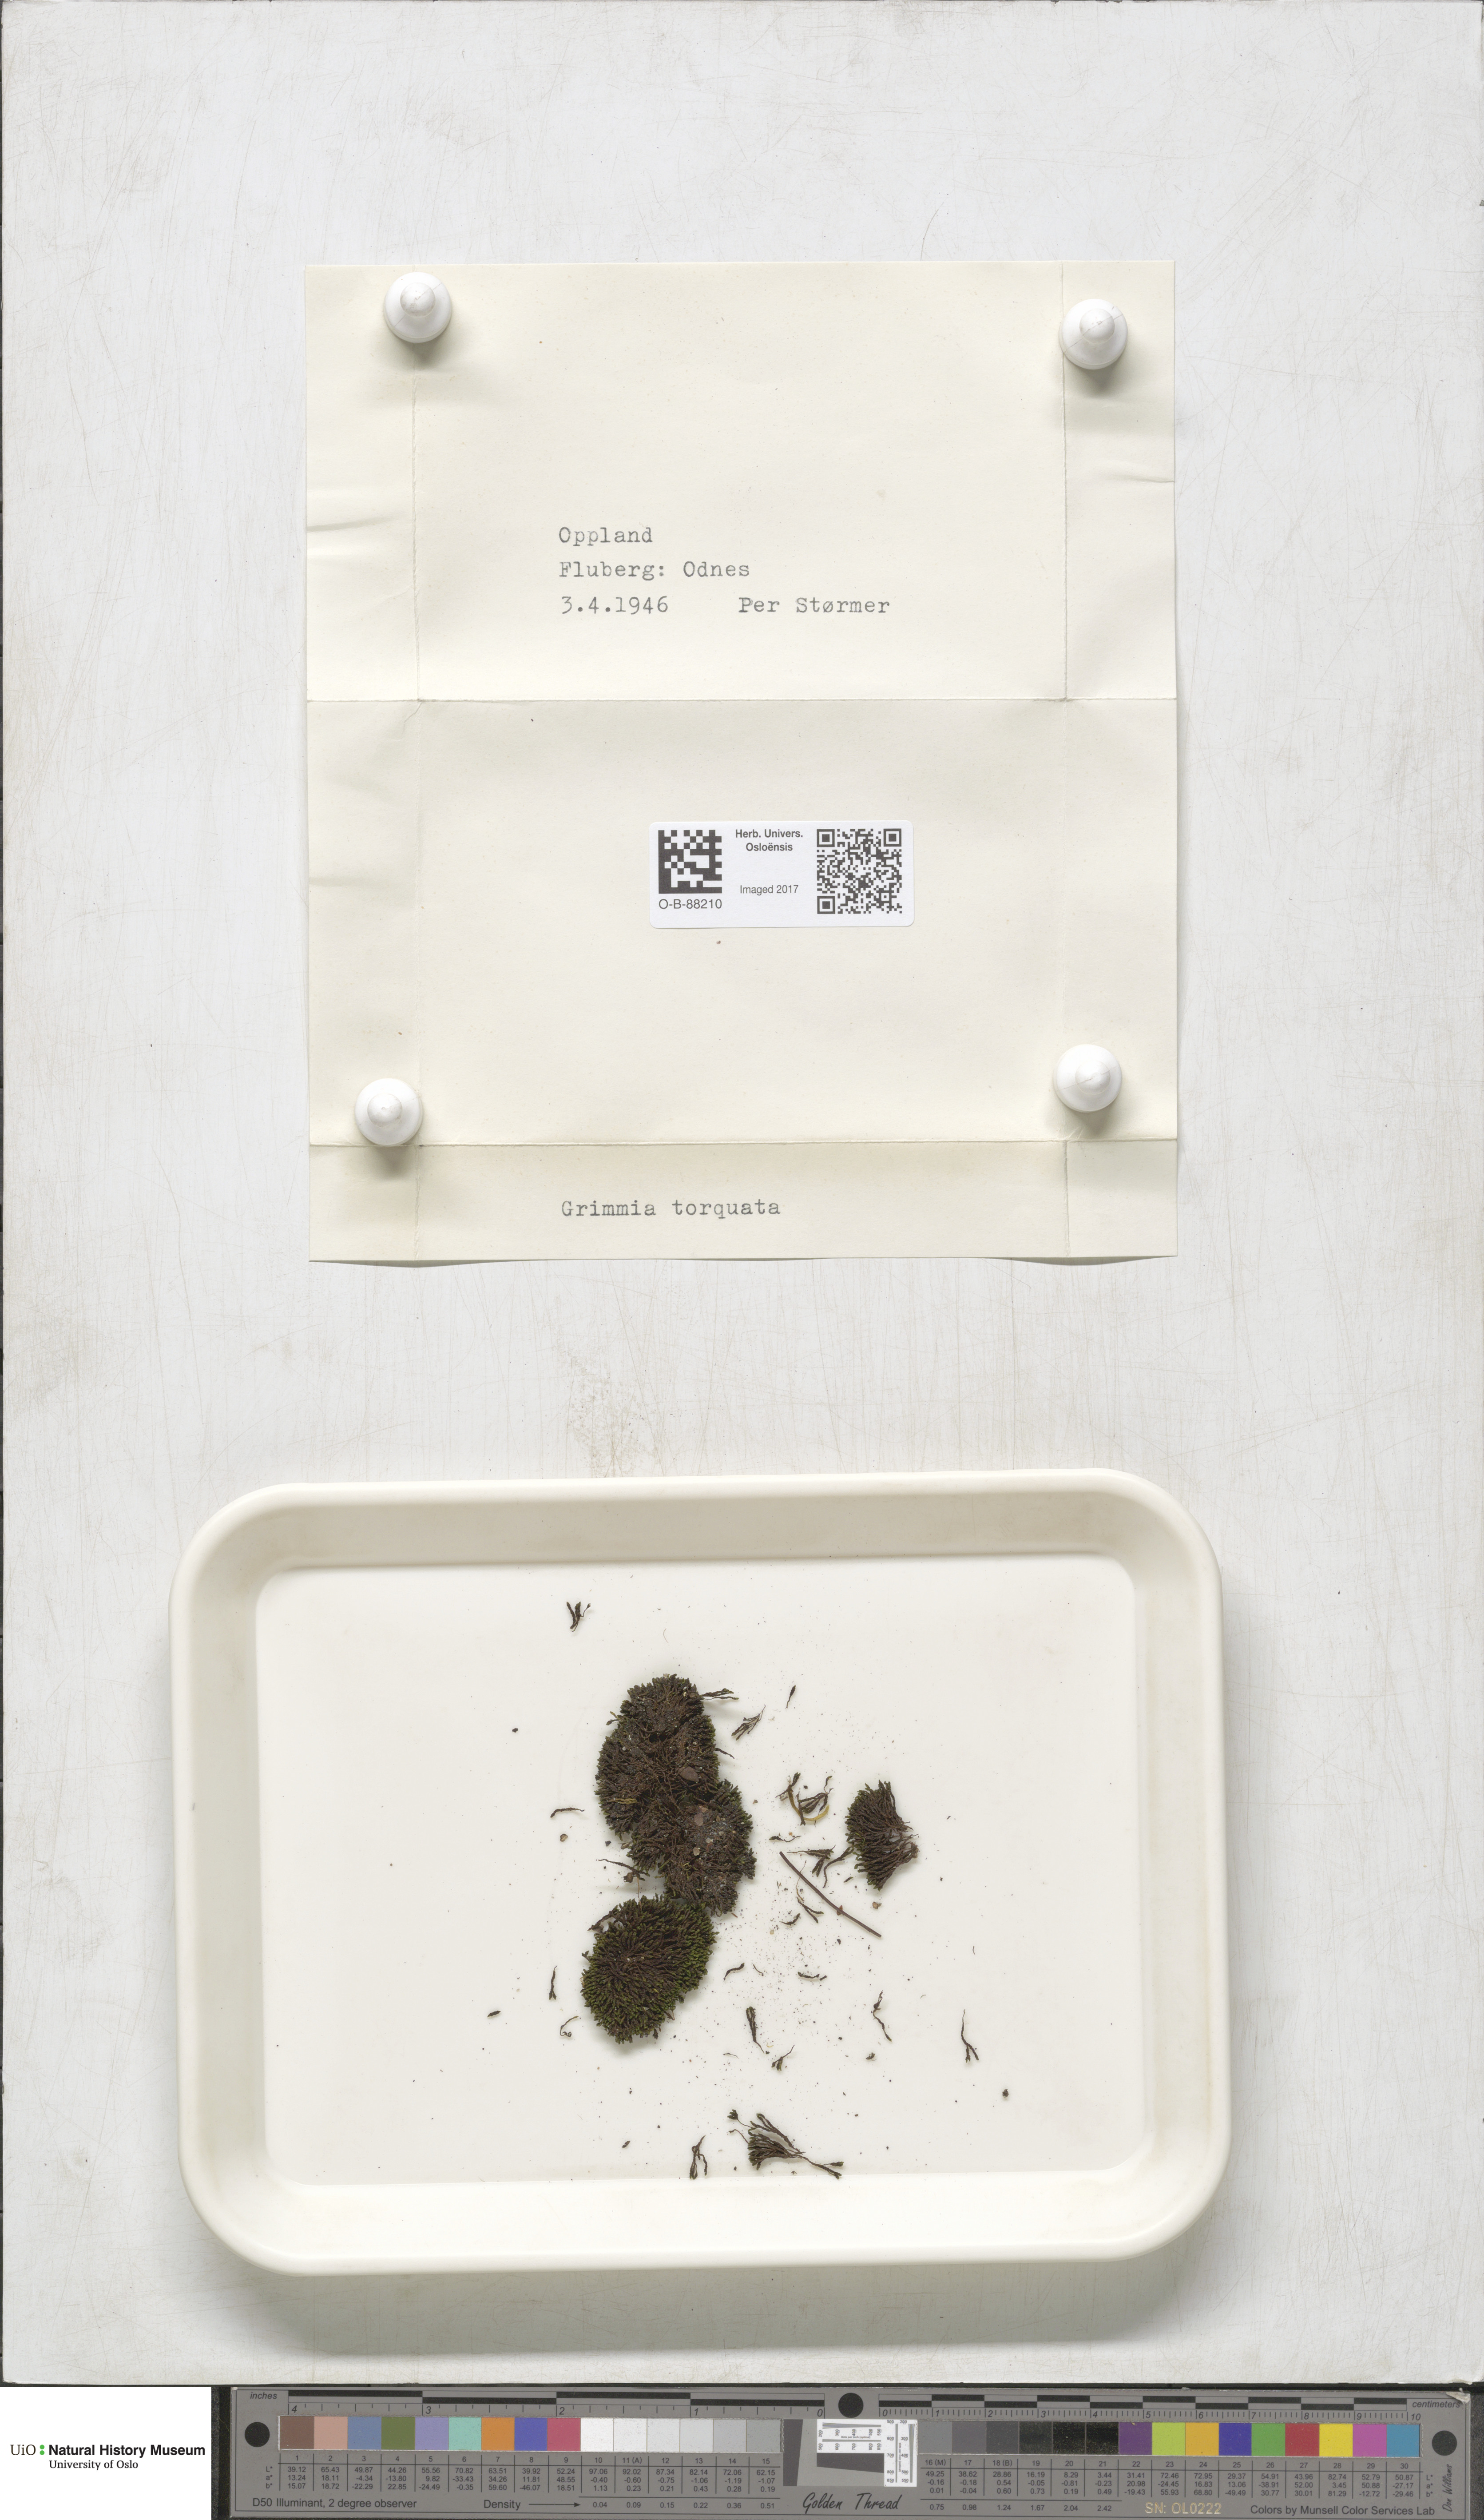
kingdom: Plantae
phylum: Bryophyta
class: Bryopsida
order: Grimmiales
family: Grimmiaceae
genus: Grimmia
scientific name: Grimmia torquata
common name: Twisted grimmia
